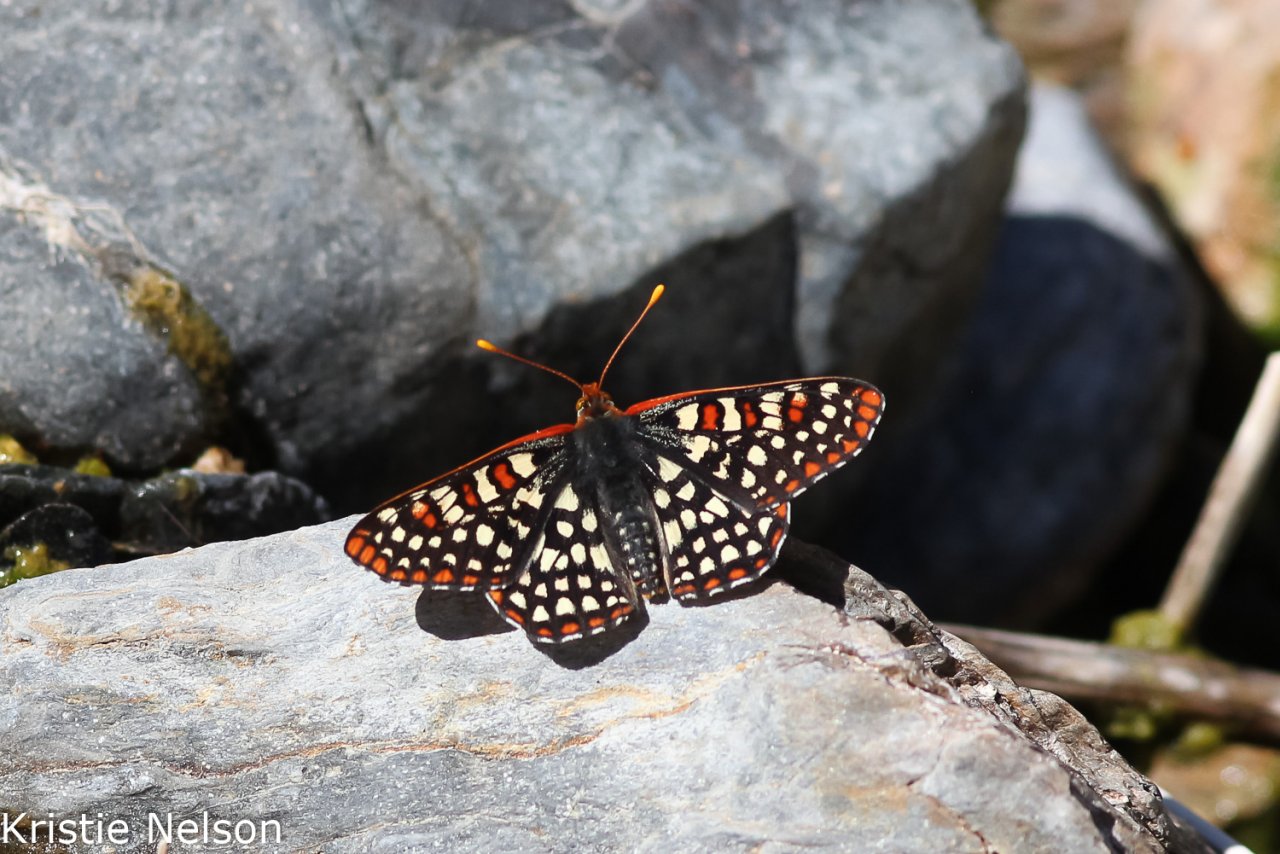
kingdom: Animalia
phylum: Arthropoda
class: Insecta
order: Lepidoptera
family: Nymphalidae
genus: Occidryas
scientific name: Occidryas chalcedona
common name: Chalcedon Checkerspot
